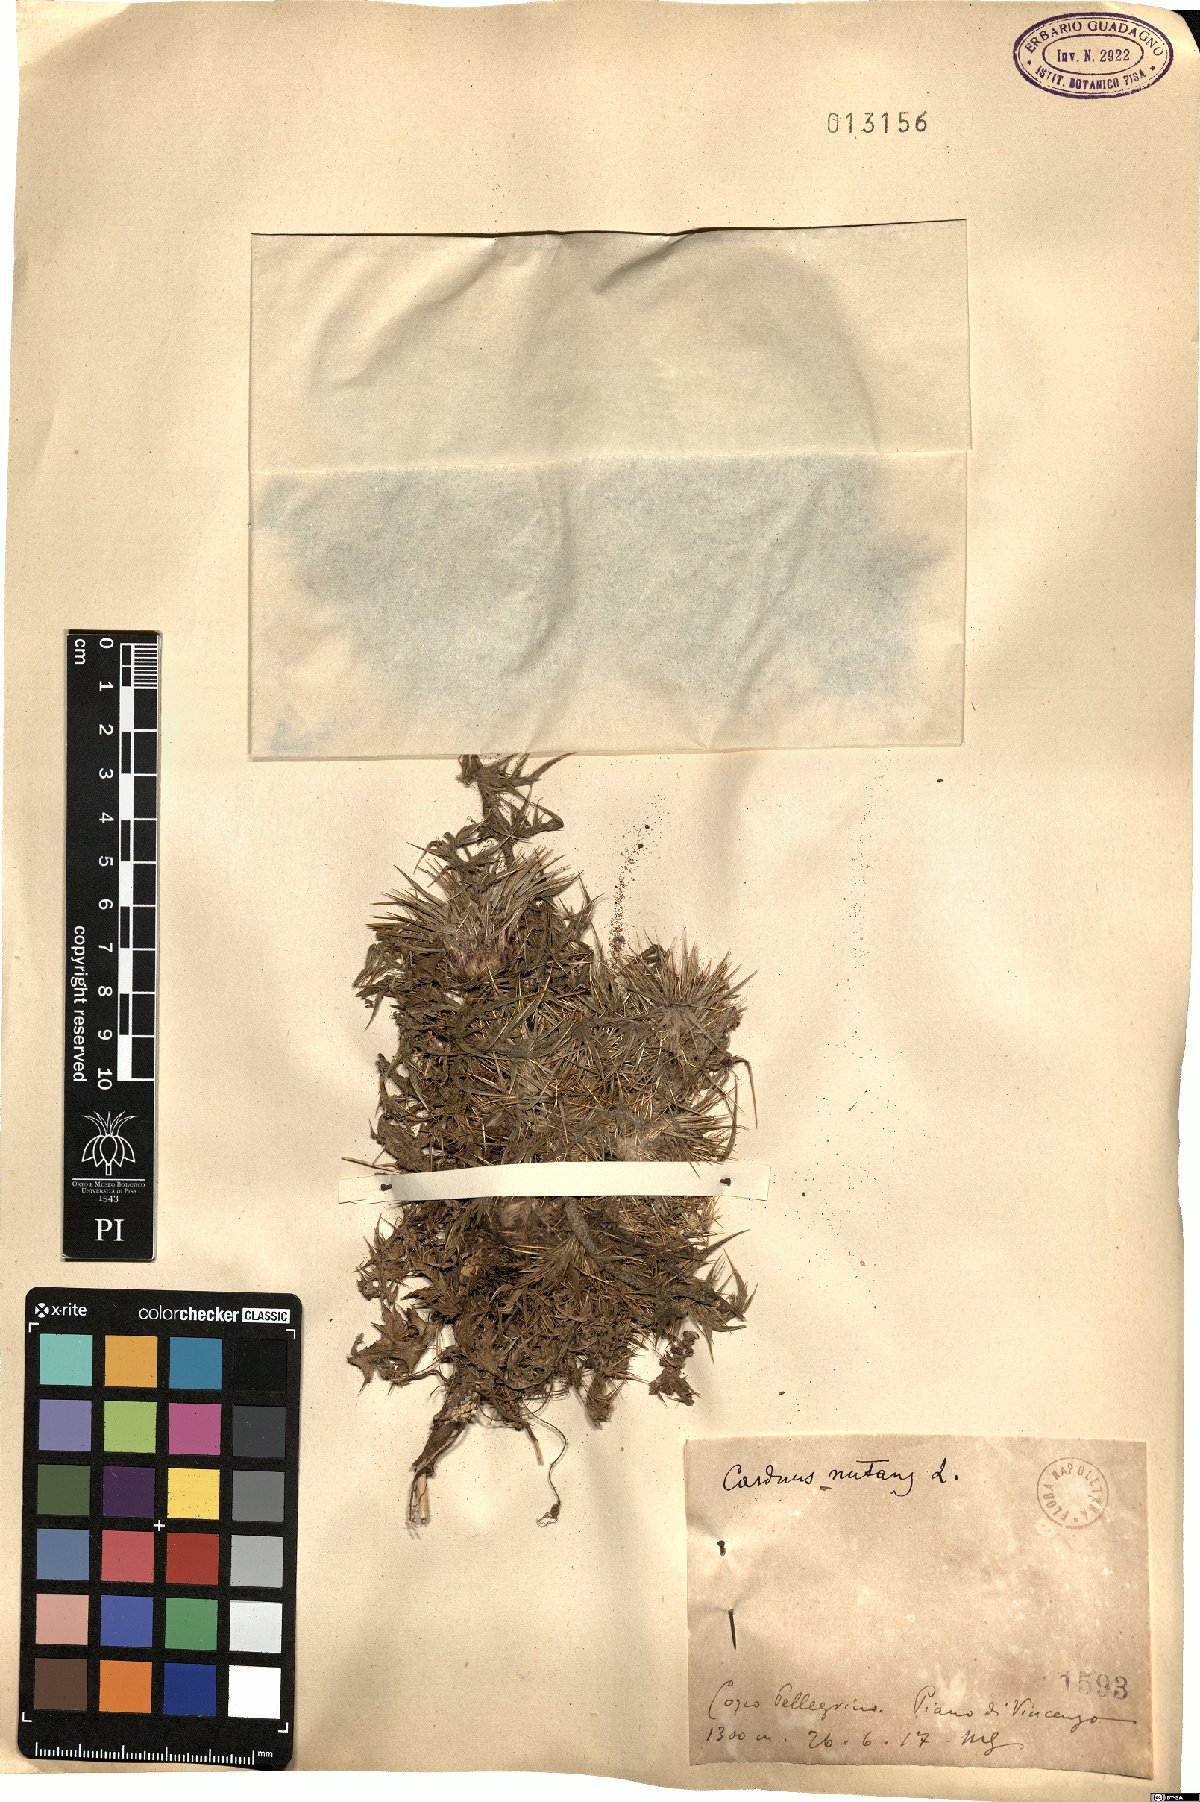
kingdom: Plantae
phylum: Tracheophyta
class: Magnoliopsida
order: Asterales
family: Asteraceae
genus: Carduus
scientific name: Carduus nutans
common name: Musk thistle
